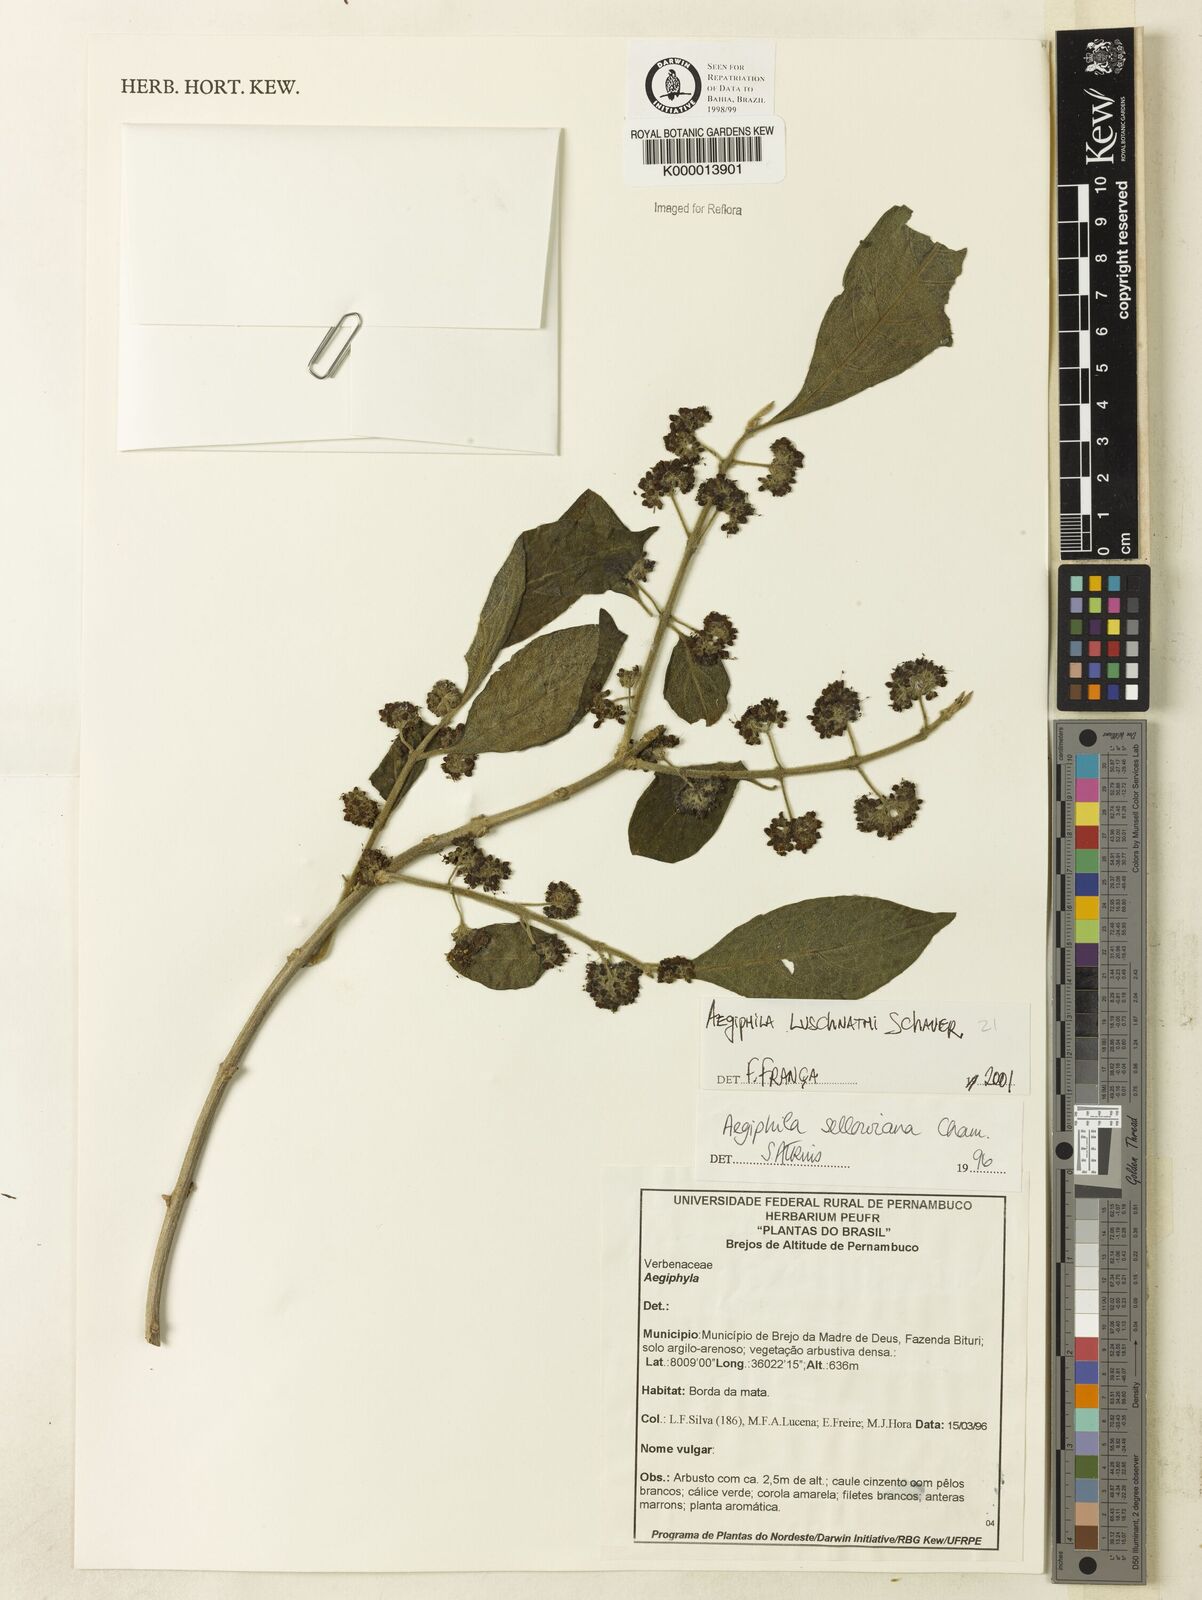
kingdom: Plantae
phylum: Tracheophyta
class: Magnoliopsida
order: Lamiales
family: Lamiaceae
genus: Aegiphila
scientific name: Aegiphila verticillata
